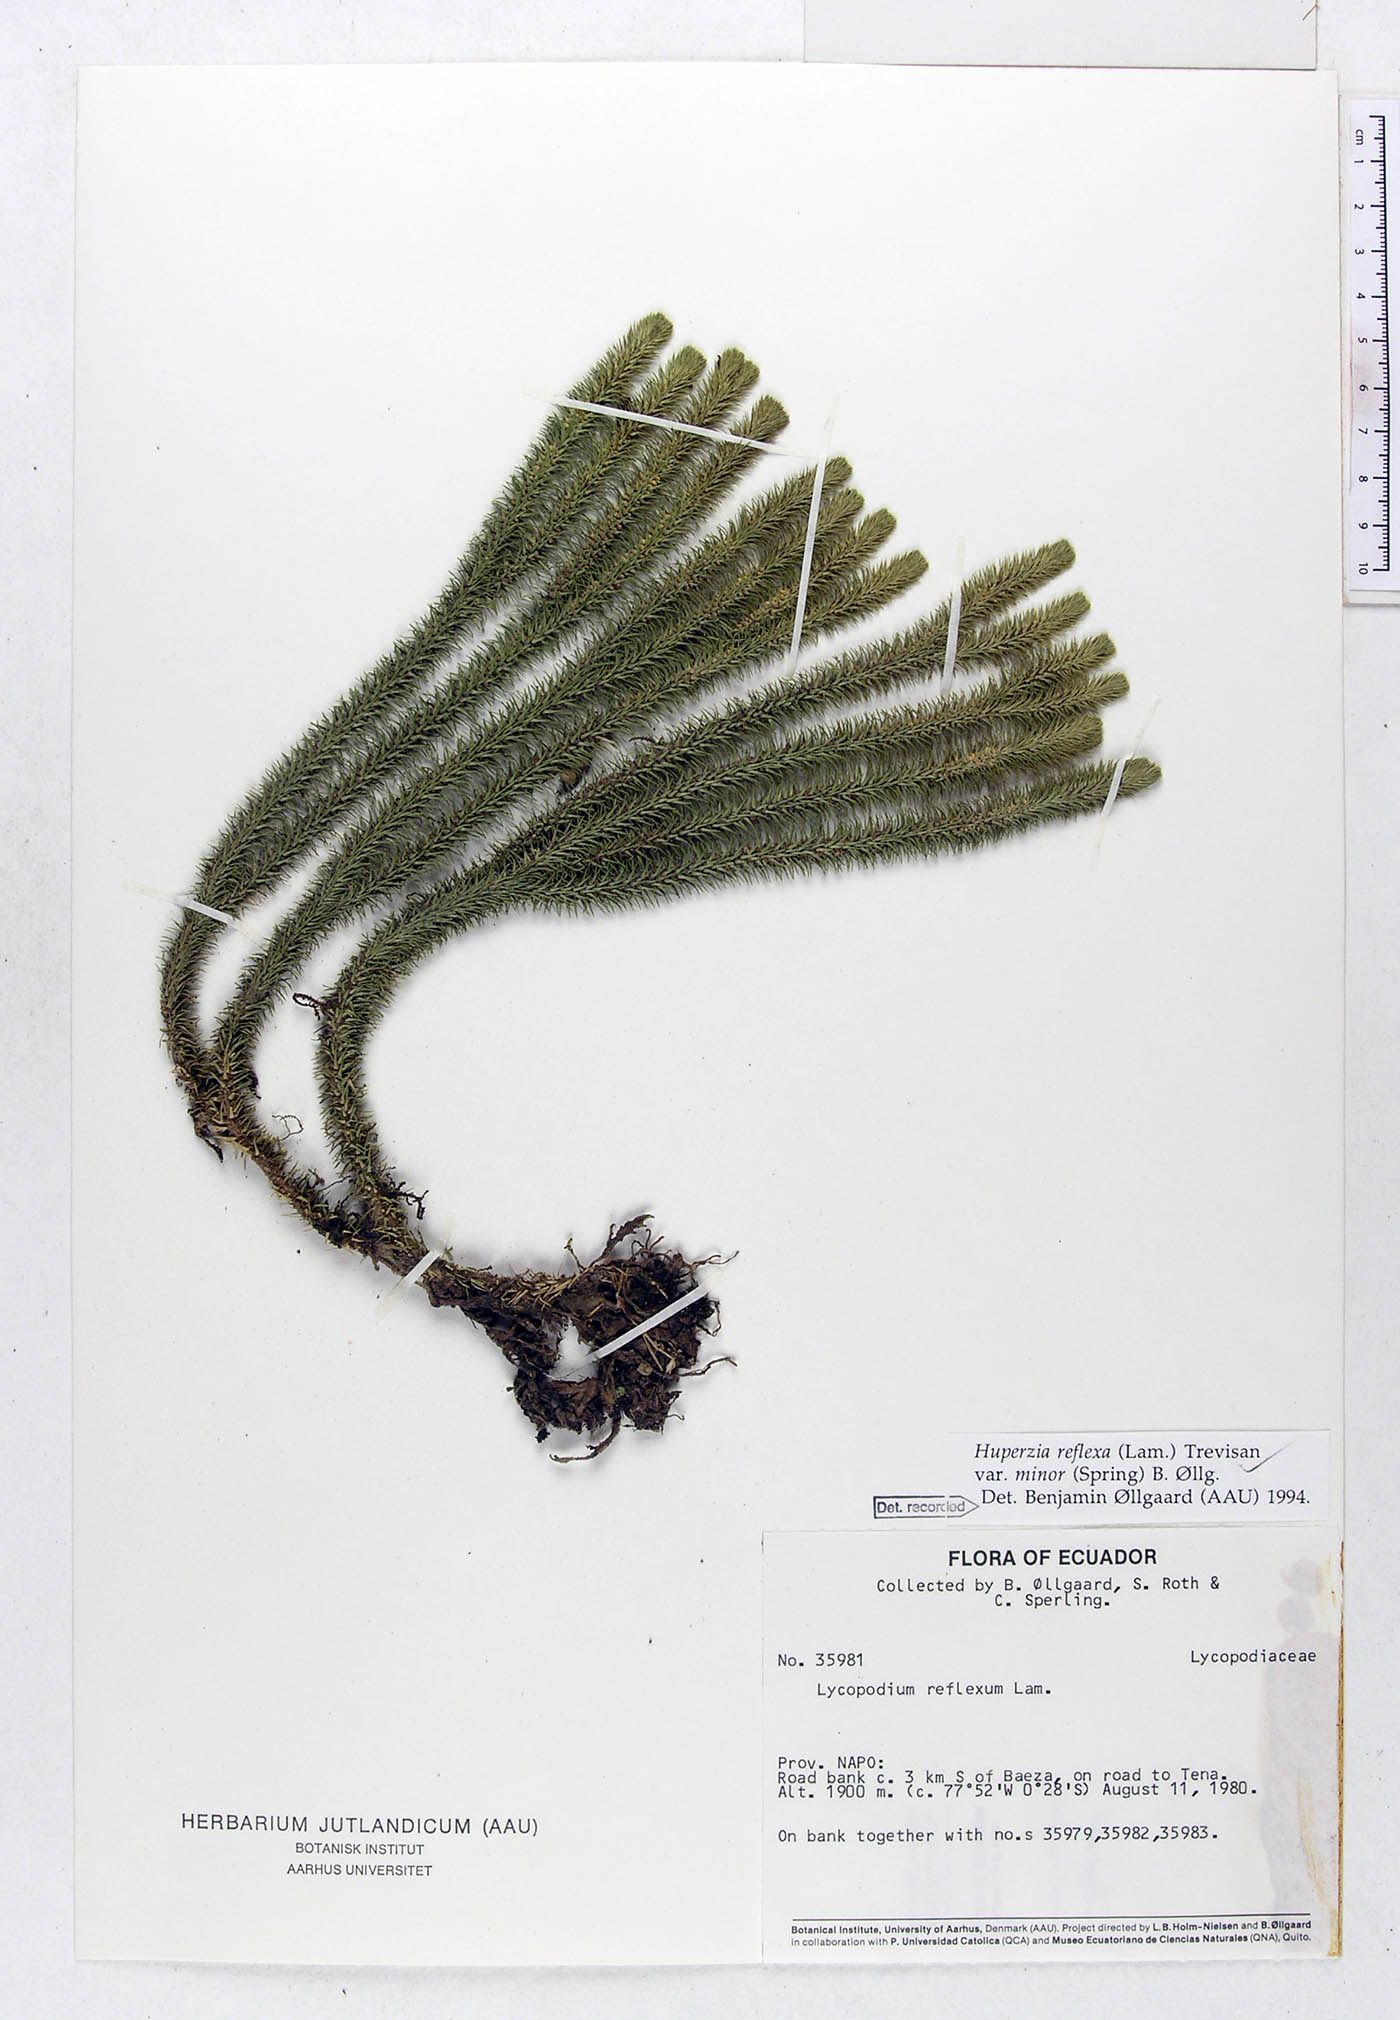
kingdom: Plantae
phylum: Tracheophyta
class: Lycopodiopsida
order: Lycopodiales
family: Lycopodiaceae
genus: Phlegmariurus
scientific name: Phlegmariurus reflexus
